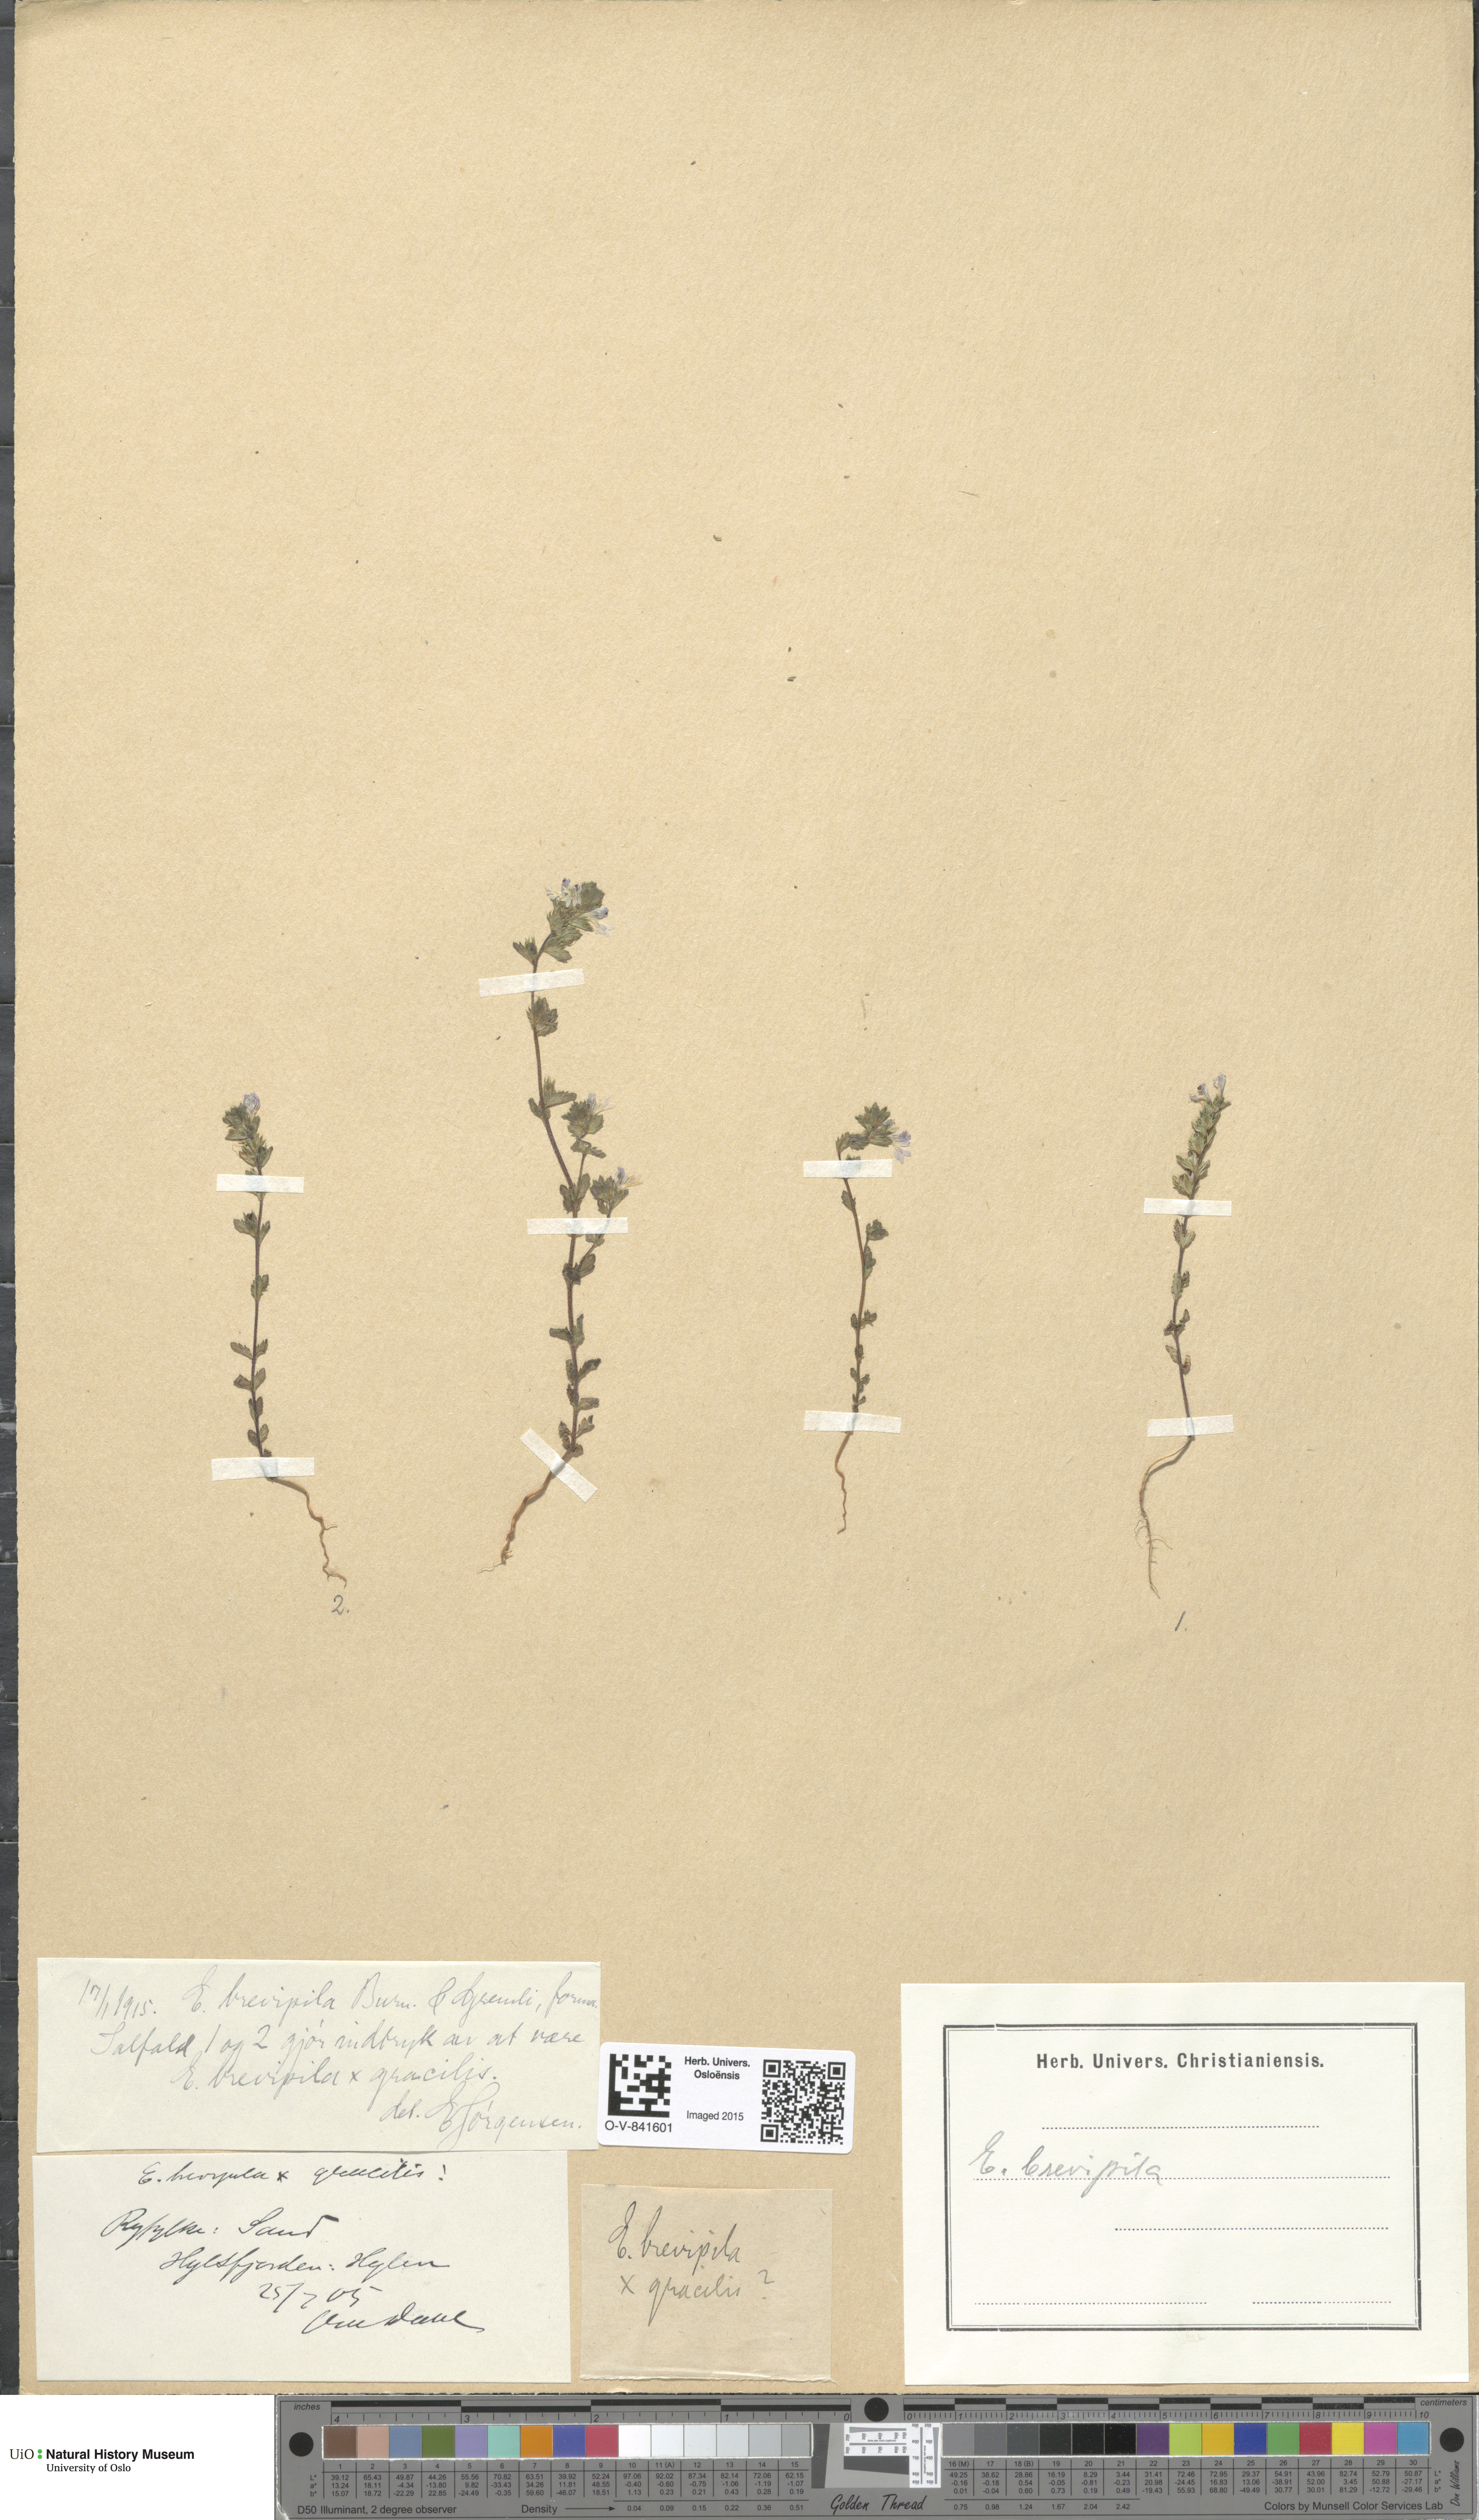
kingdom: Plantae
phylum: Tracheophyta
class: Magnoliopsida
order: Lamiales
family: Orobanchaceae
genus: Euphrasia
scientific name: Euphrasia vernalis
